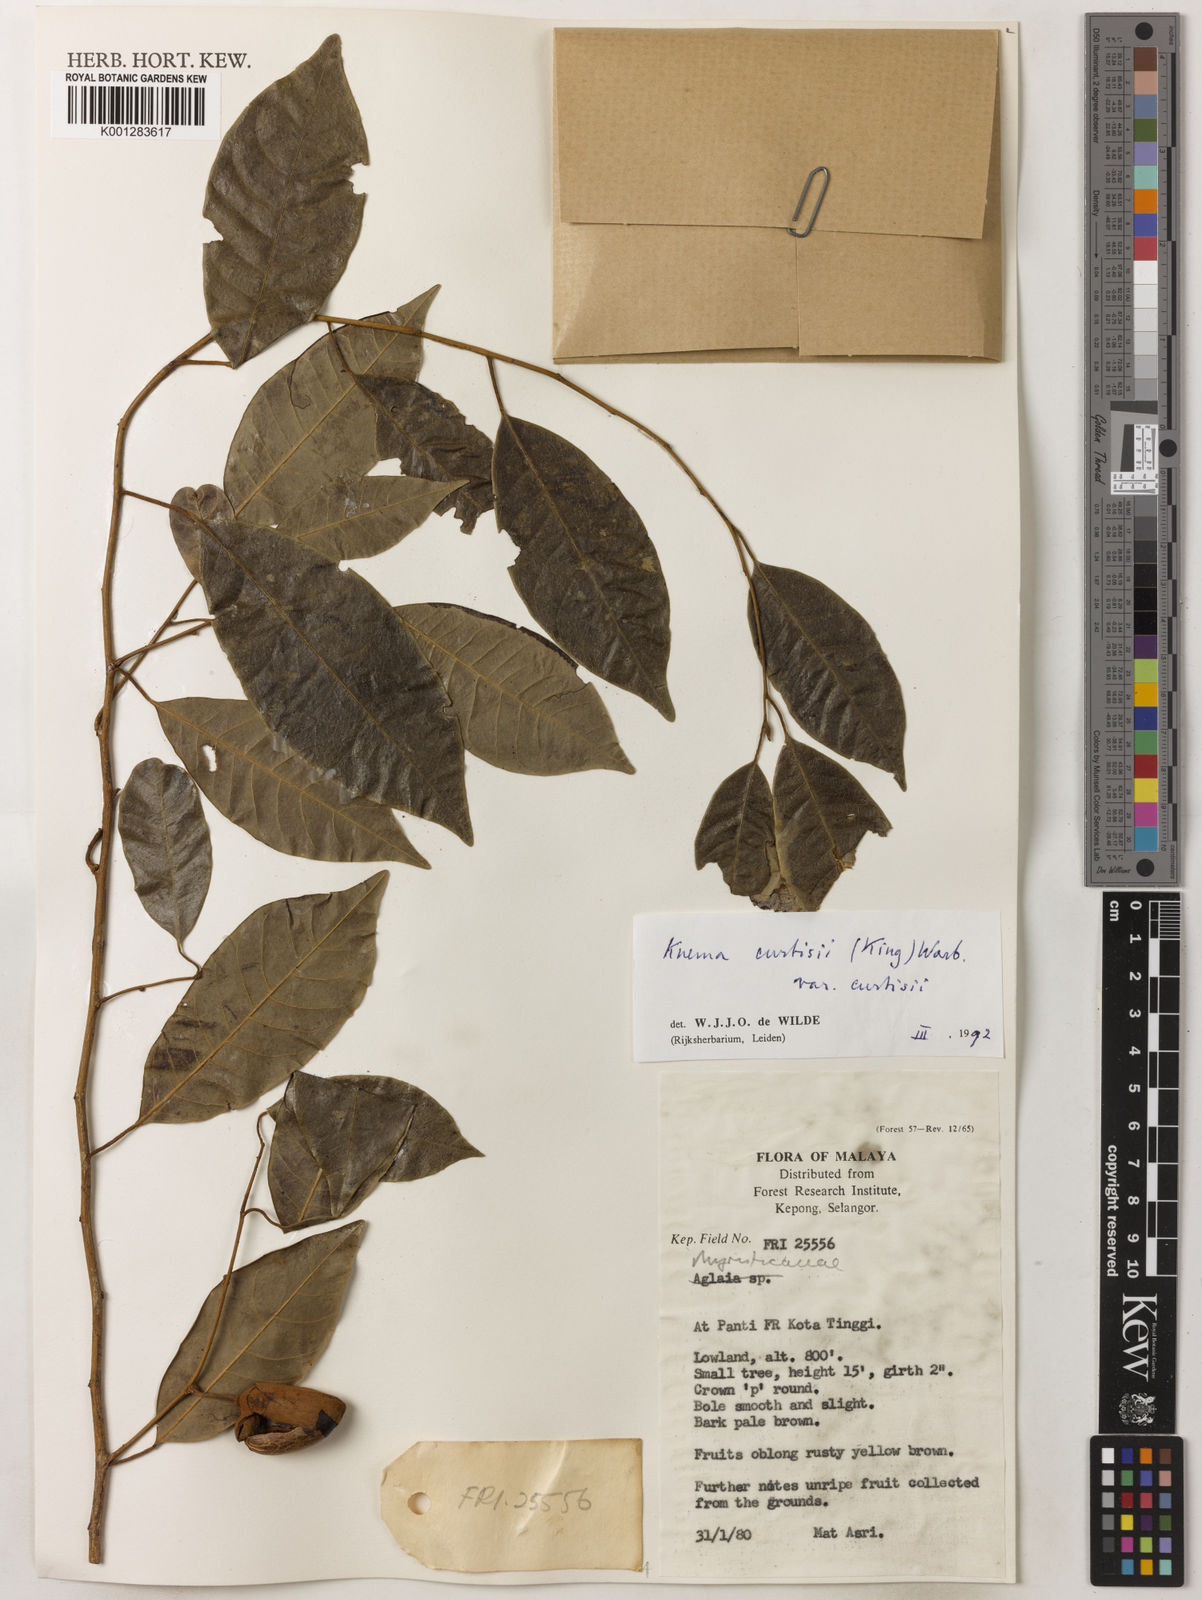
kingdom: Plantae
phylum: Tracheophyta
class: Magnoliopsida
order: Magnoliales
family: Myristicaceae
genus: Knema
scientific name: Knema curtisii
